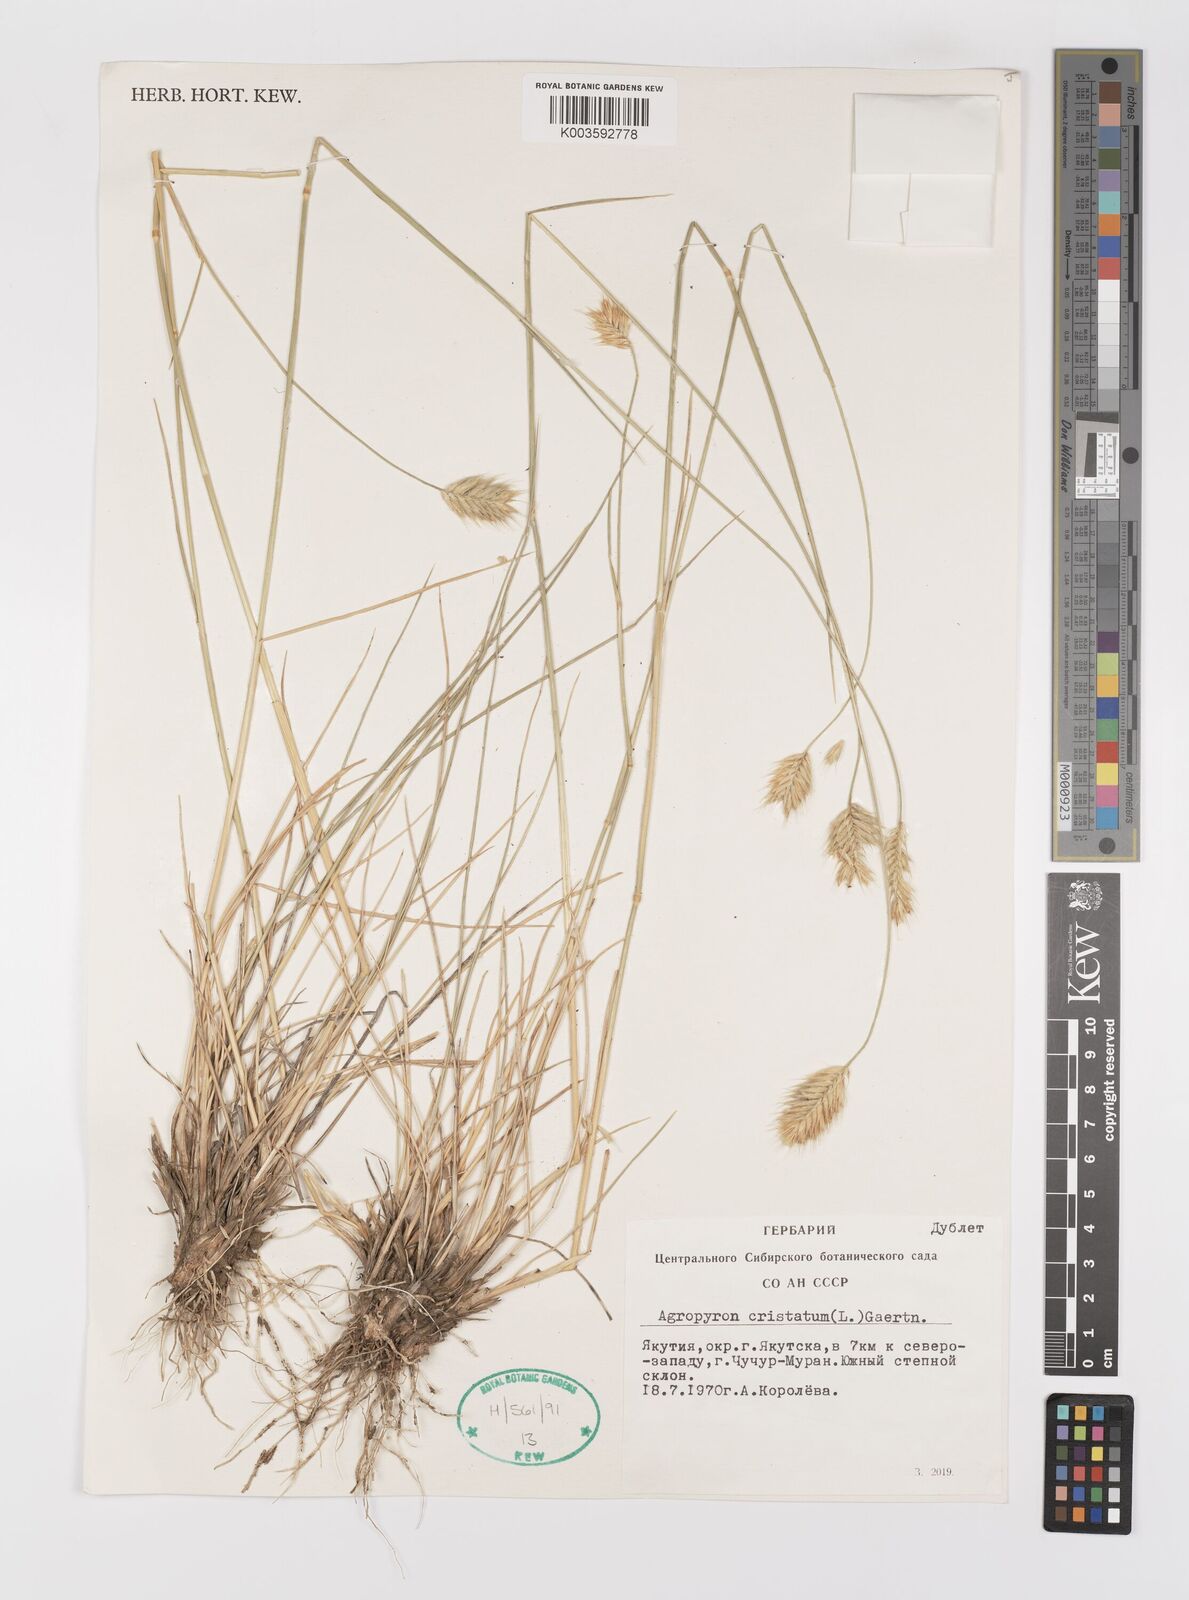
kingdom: Plantae
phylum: Tracheophyta
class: Liliopsida
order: Poales
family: Poaceae
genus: Agropyron
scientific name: Agropyron cristatum
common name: Crested wheatgrass
